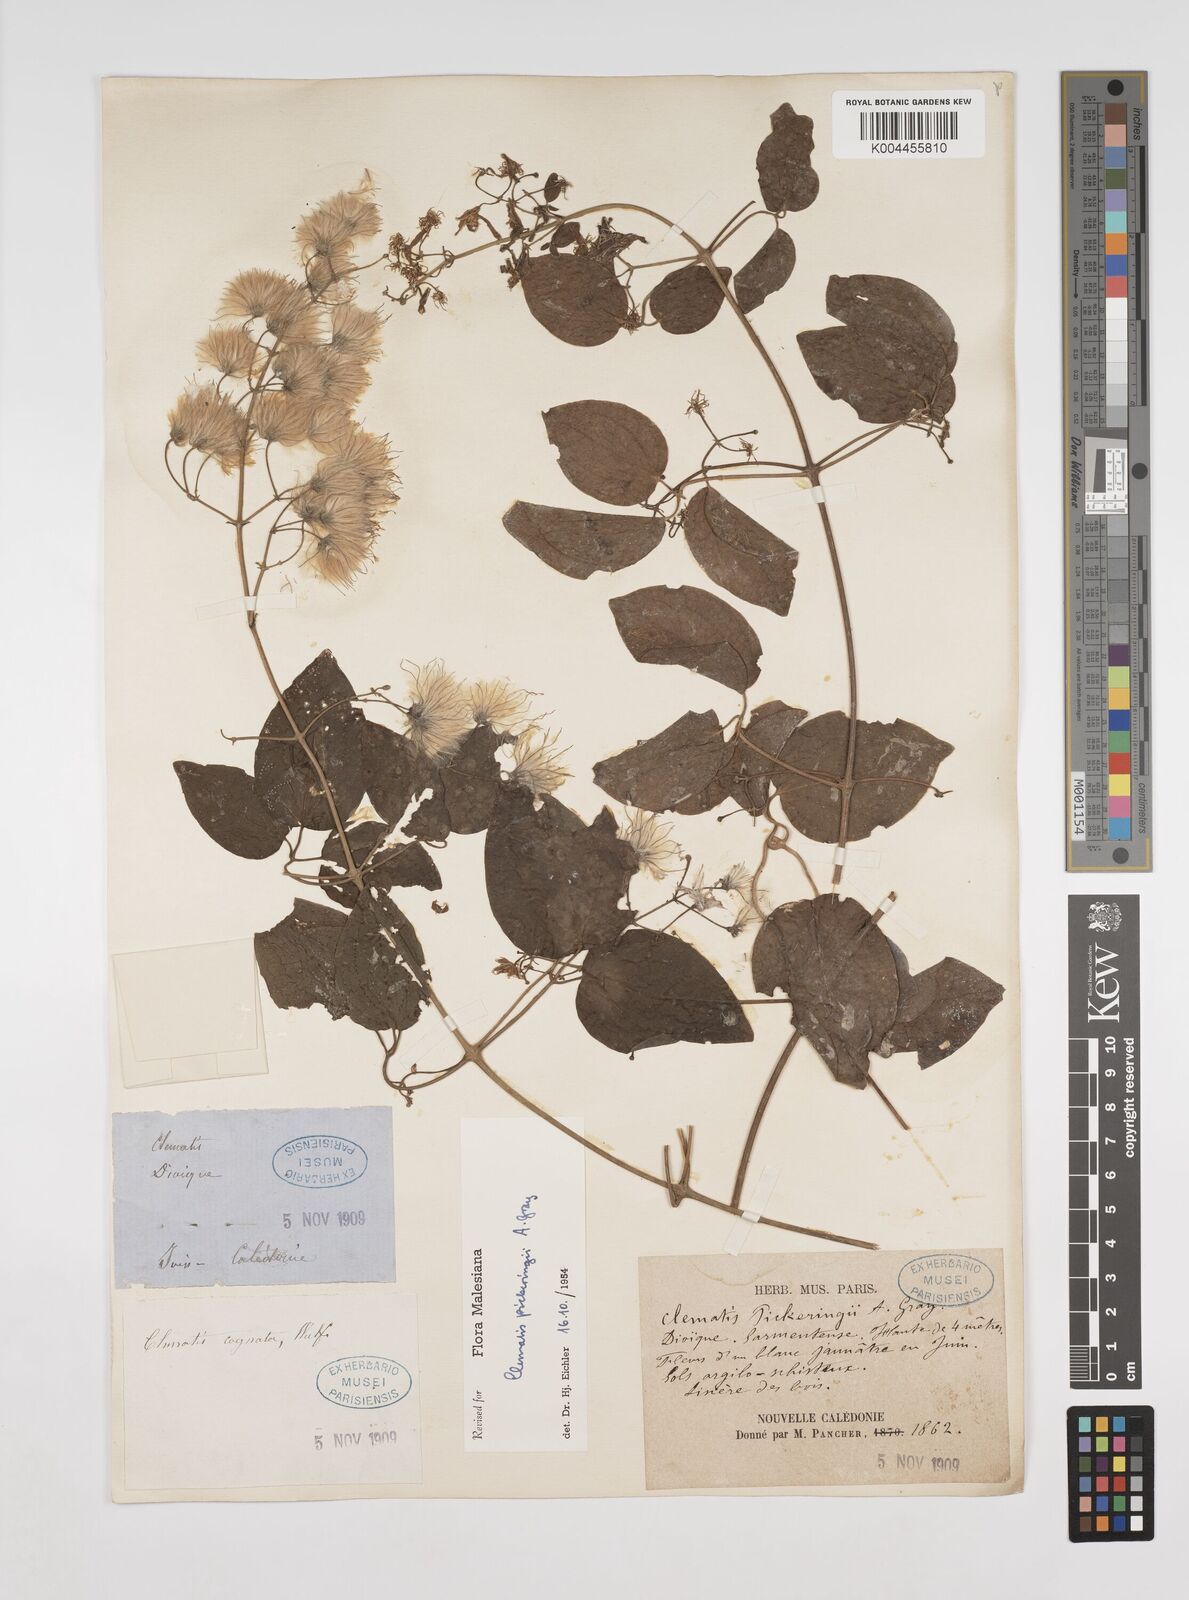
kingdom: Plantae
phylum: Tracheophyta
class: Magnoliopsida
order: Ranunculales
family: Ranunculaceae
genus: Clematis
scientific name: Clematis pickeringii
